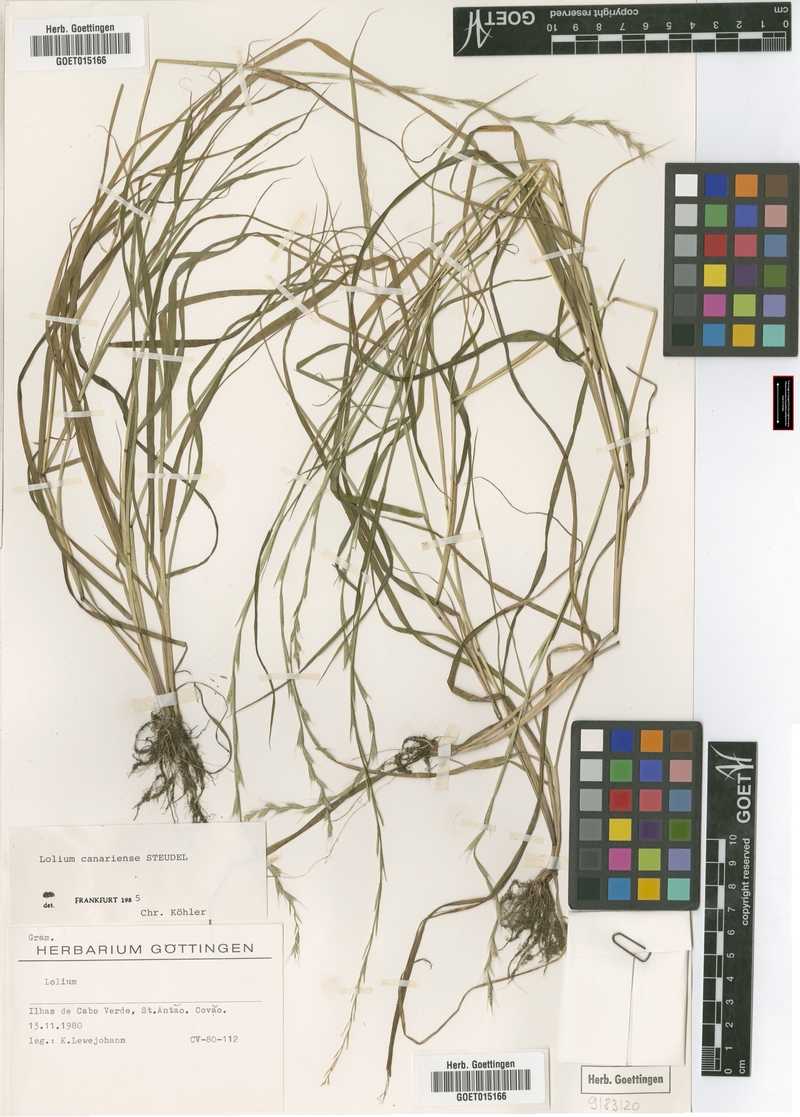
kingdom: Plantae
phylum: Tracheophyta
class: Liliopsida
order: Poales
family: Poaceae
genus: Lolium
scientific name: Lolium canariense
